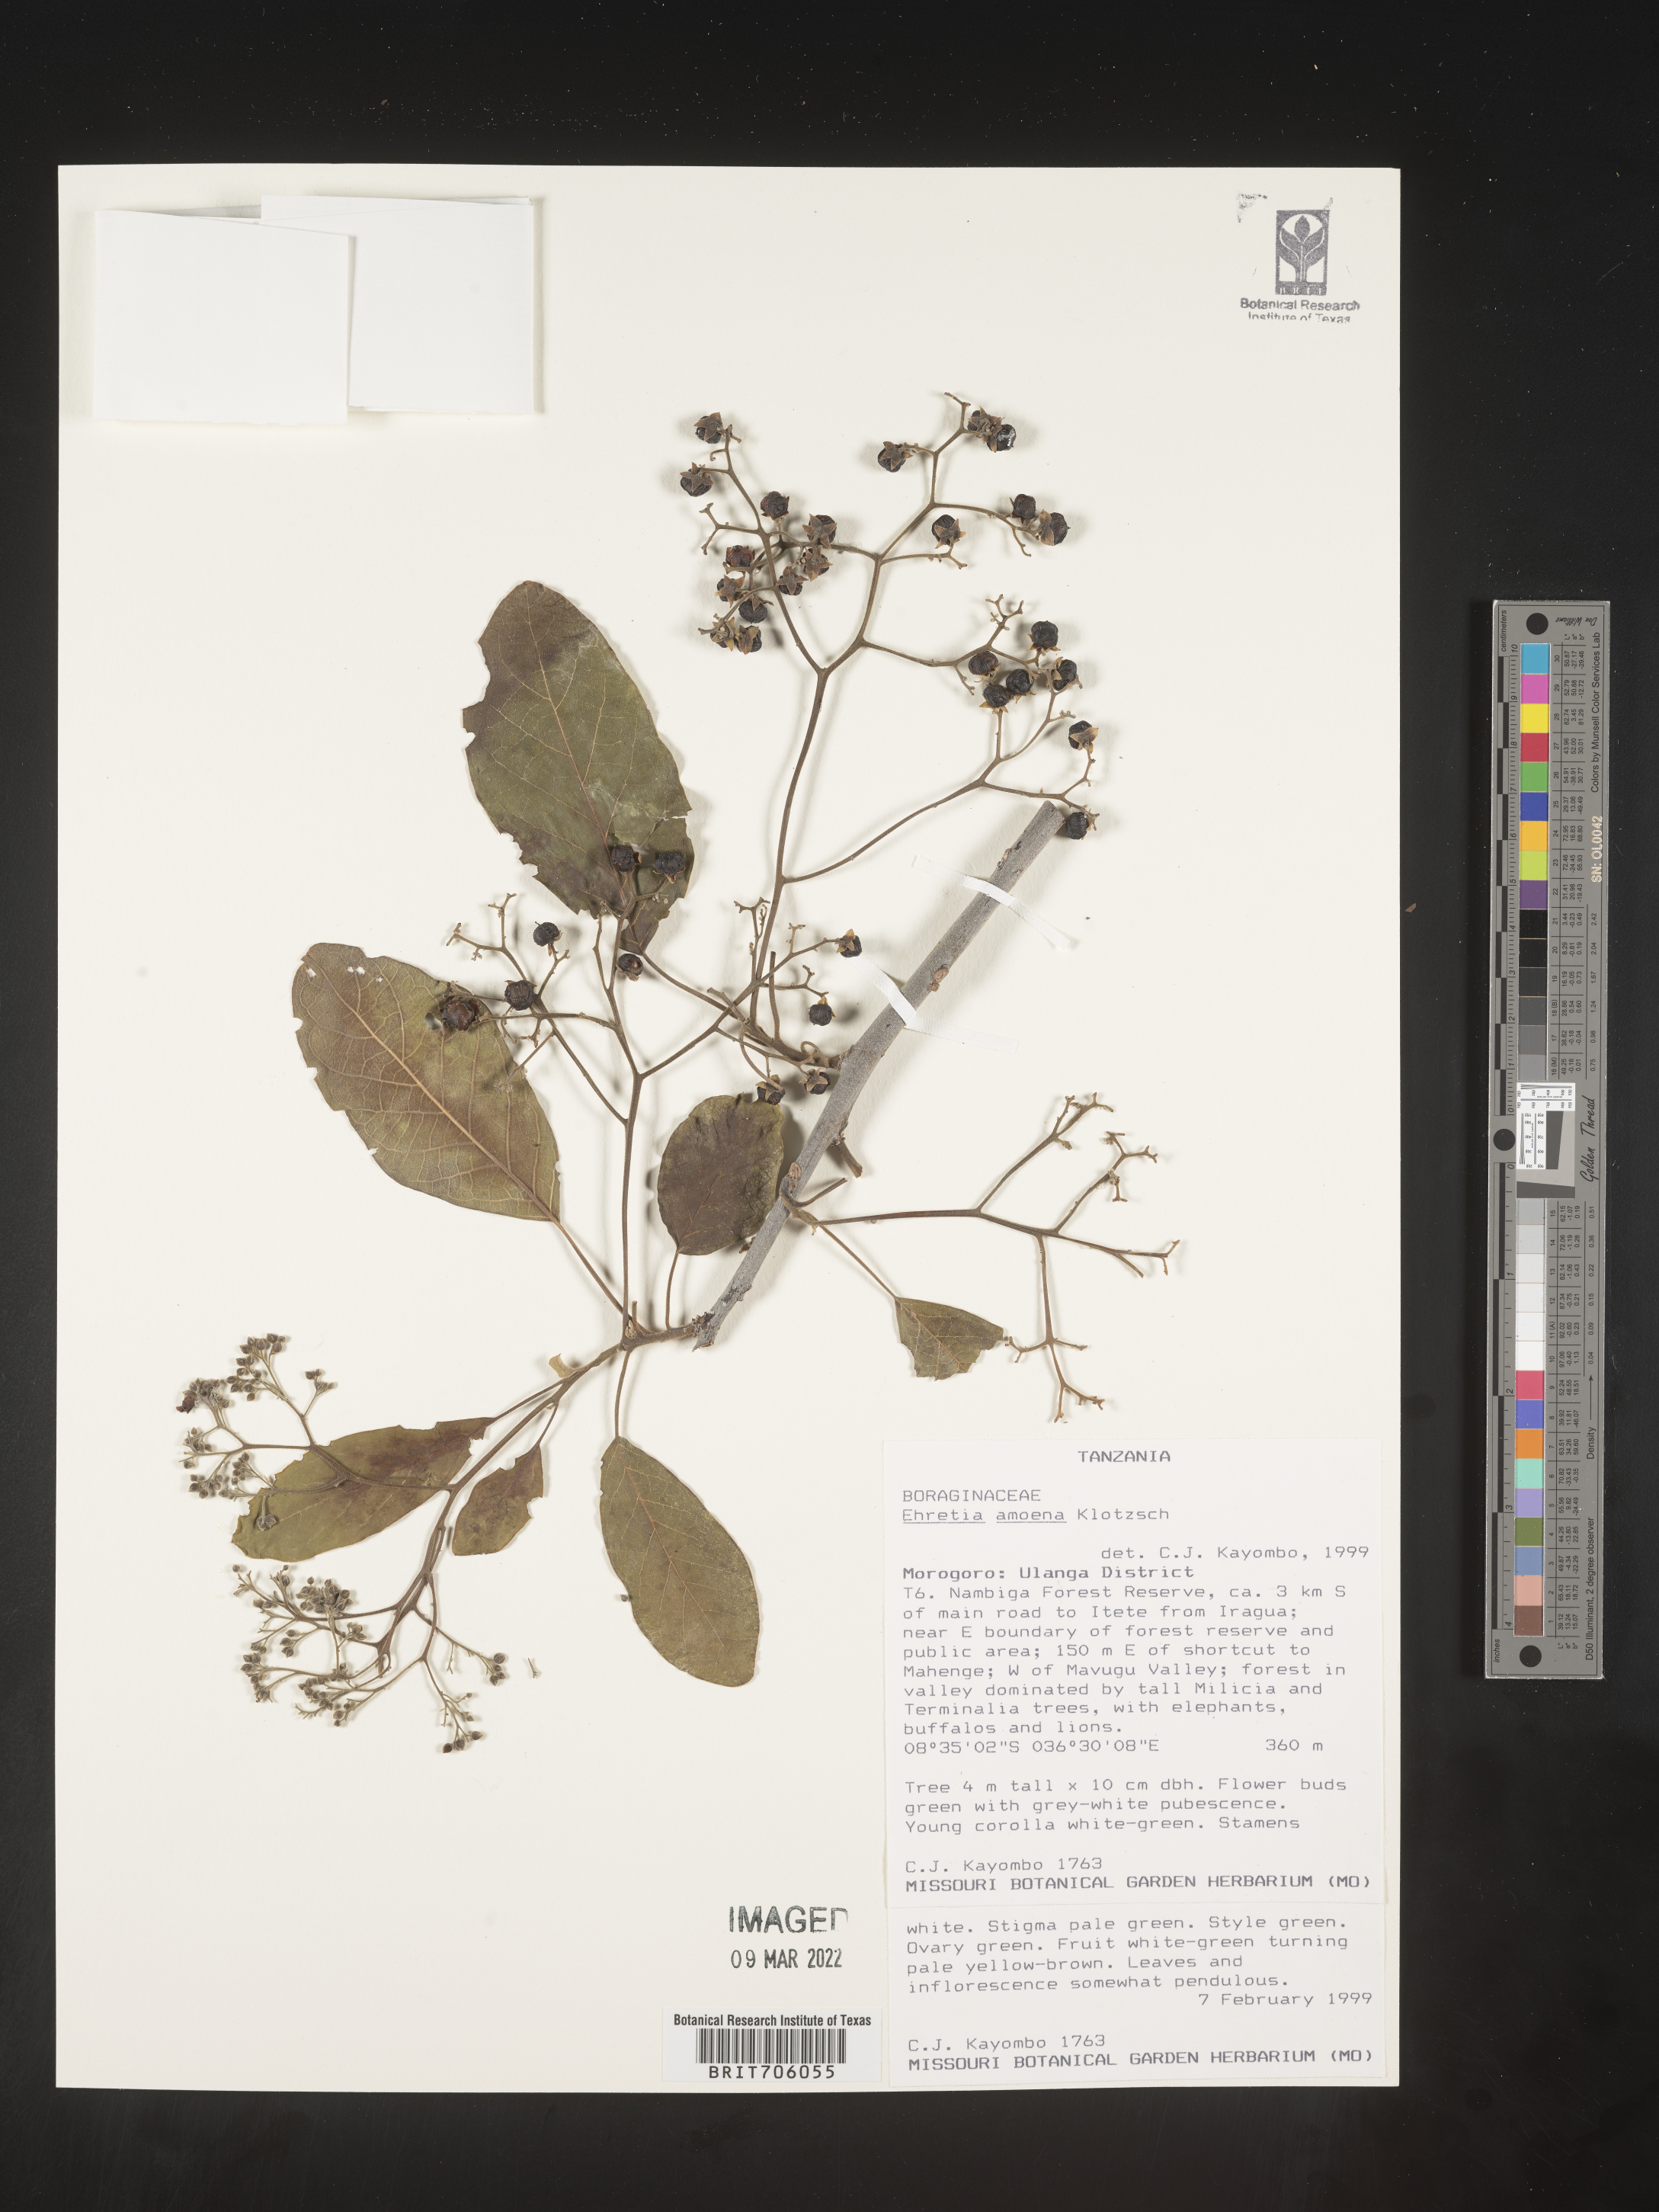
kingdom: Plantae
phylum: Tracheophyta
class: Magnoliopsida
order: Boraginales
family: Ehretiaceae
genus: Ehretia
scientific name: Ehretia
